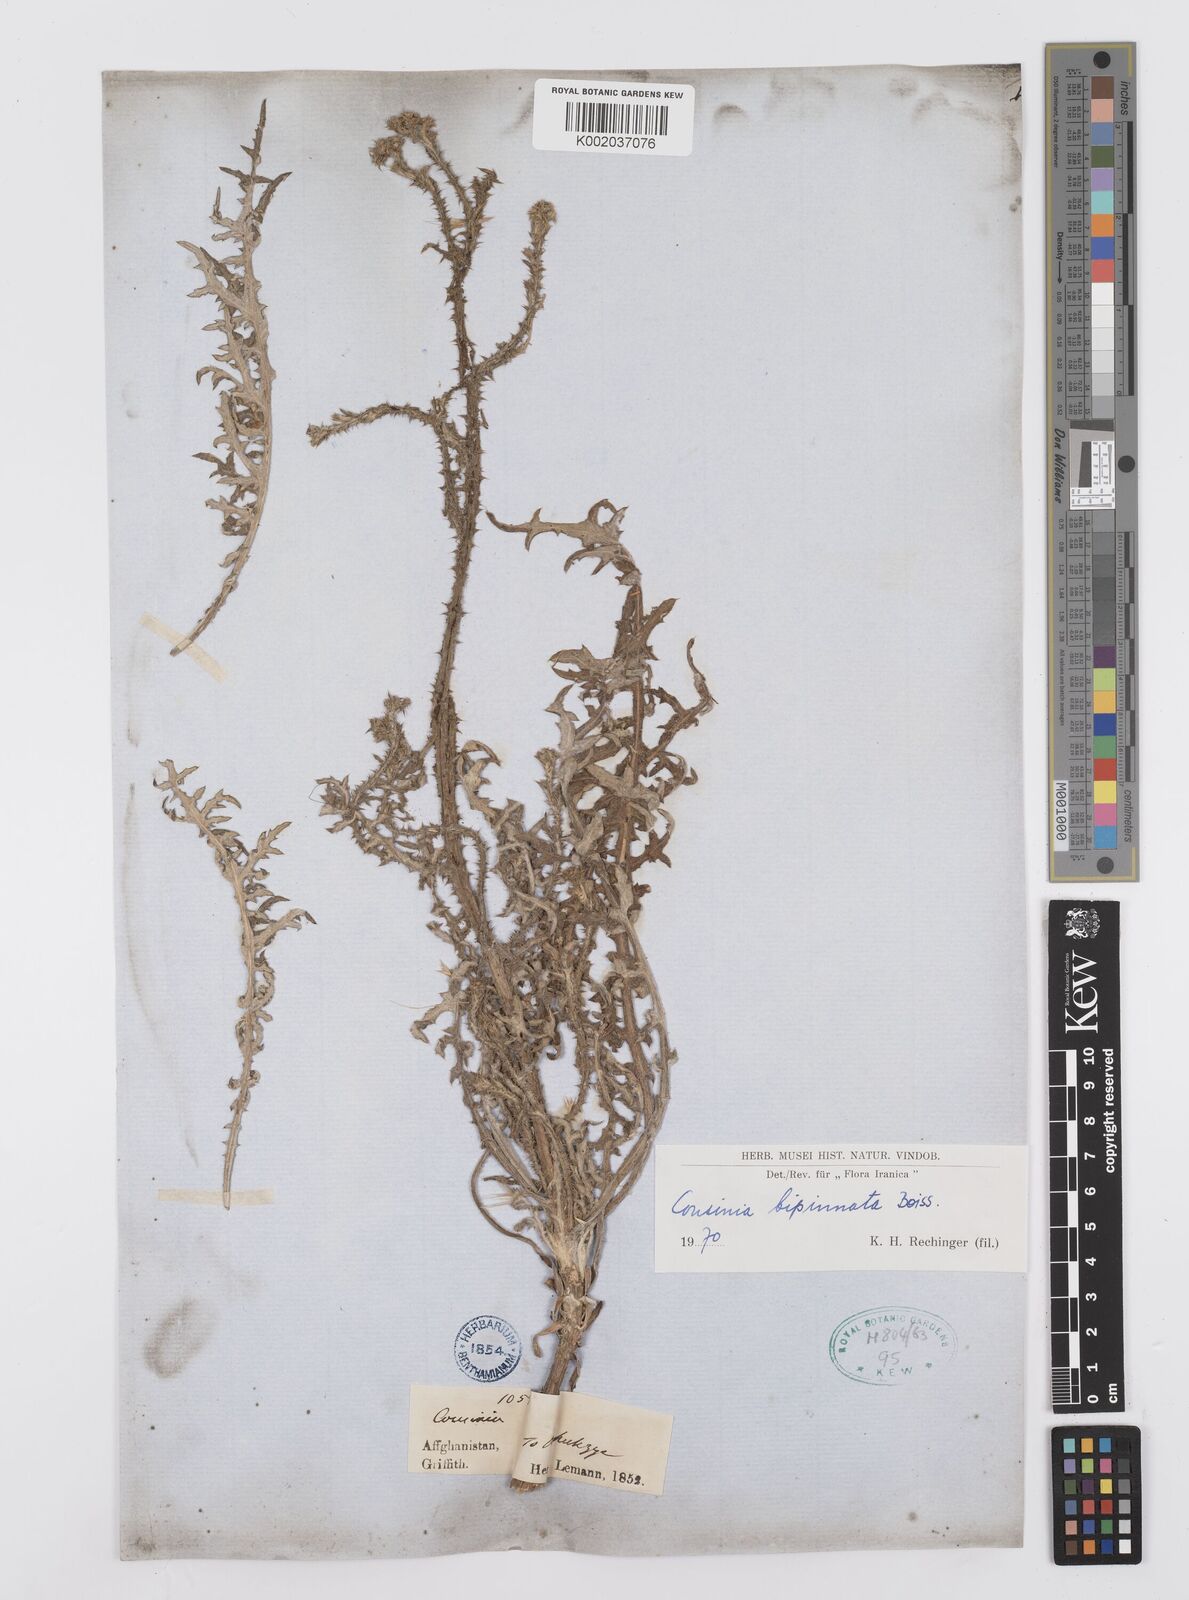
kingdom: Plantae
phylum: Tracheophyta
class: Magnoliopsida
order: Asterales
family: Asteraceae
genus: Cousinia
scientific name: Cousinia bipinnata
